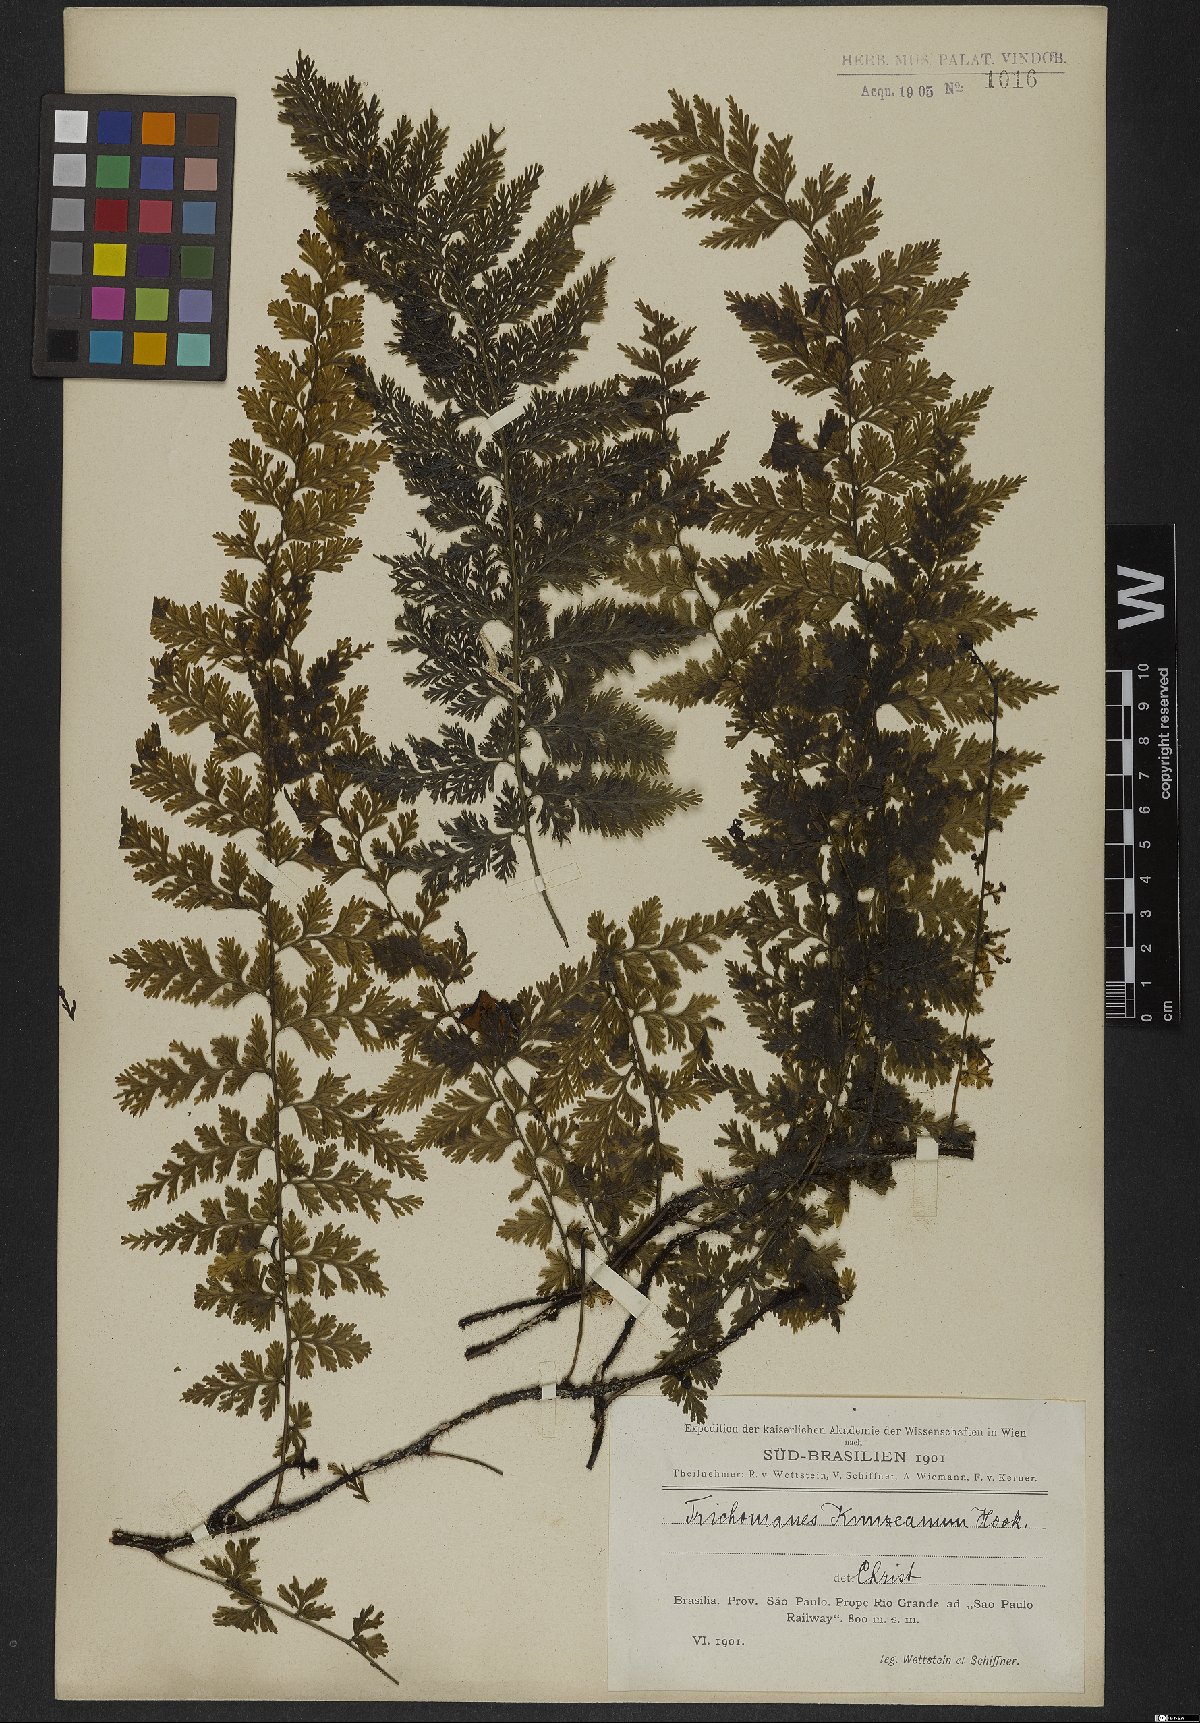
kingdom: Plantae
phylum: Tracheophyta
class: Polypodiopsida
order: Hymenophyllales
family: Hymenophyllaceae
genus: Vandenboschia
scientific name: Vandenboschia radicans
